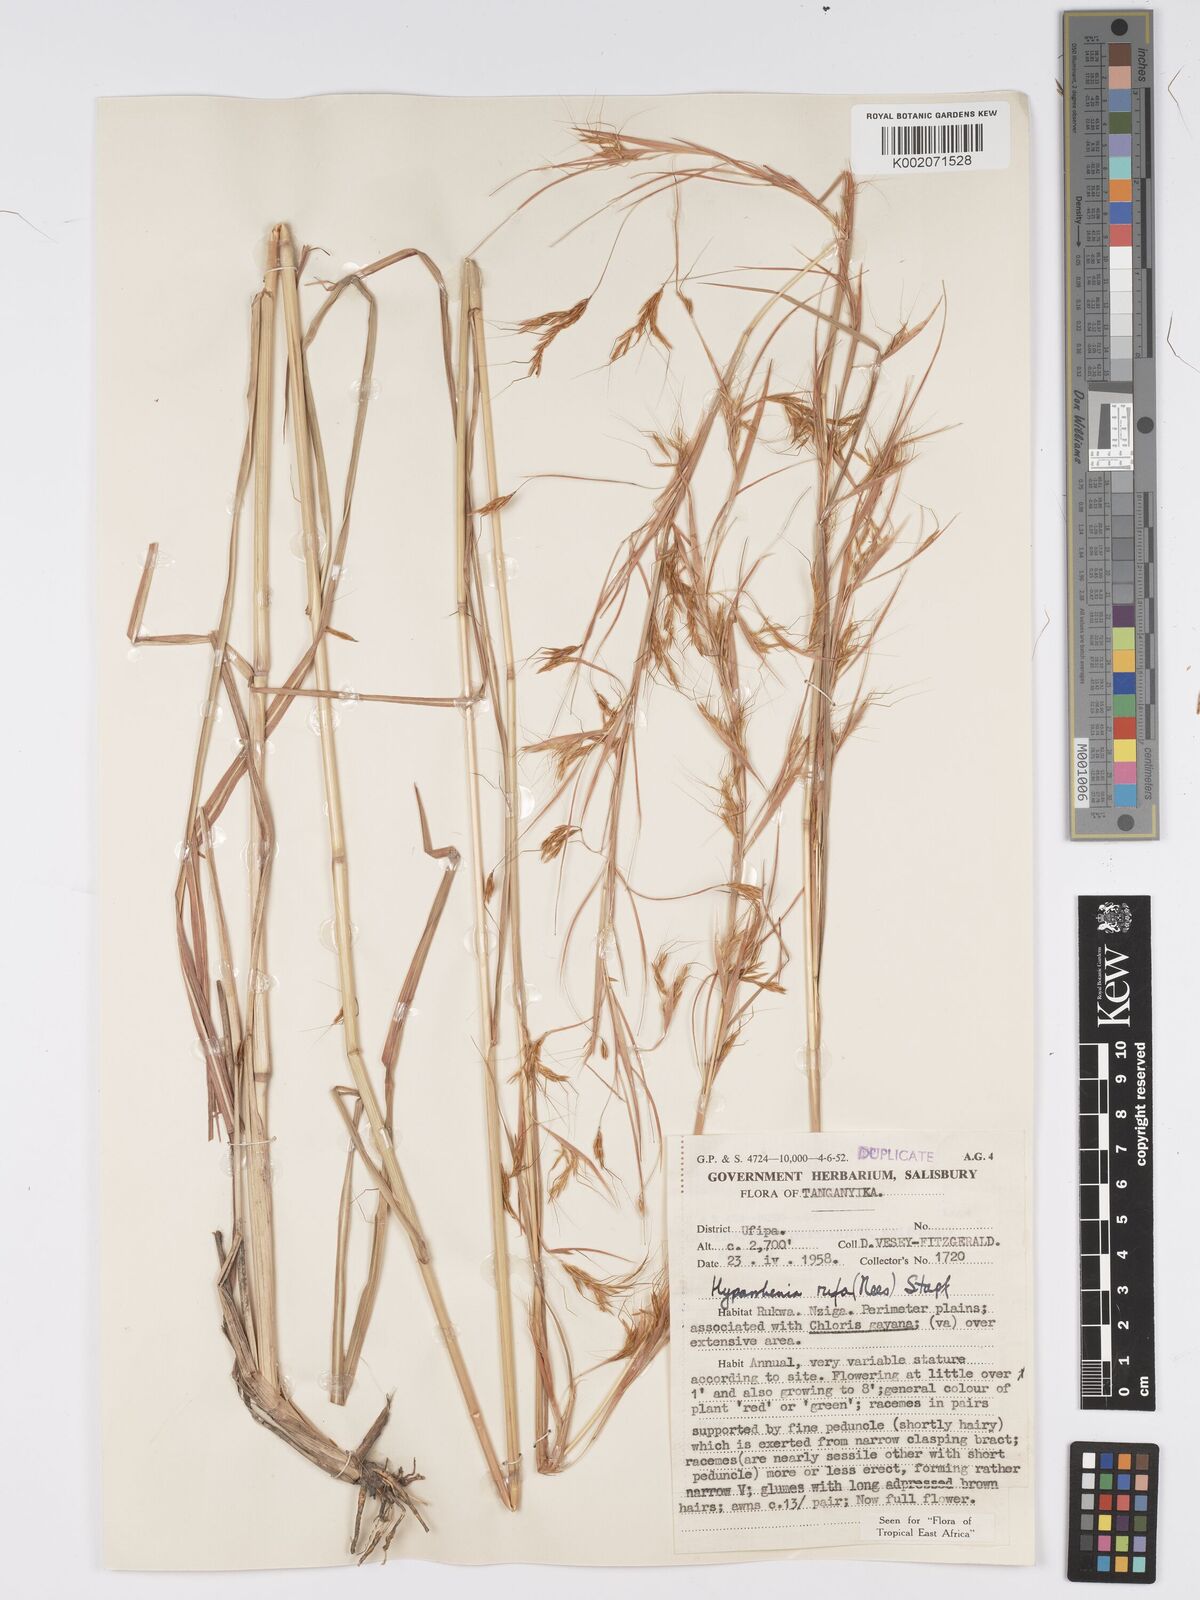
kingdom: Plantae
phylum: Tracheophyta
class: Liliopsida
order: Poales
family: Poaceae
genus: Hyparrhenia
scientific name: Hyparrhenia rufa
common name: Jaraguagrass
